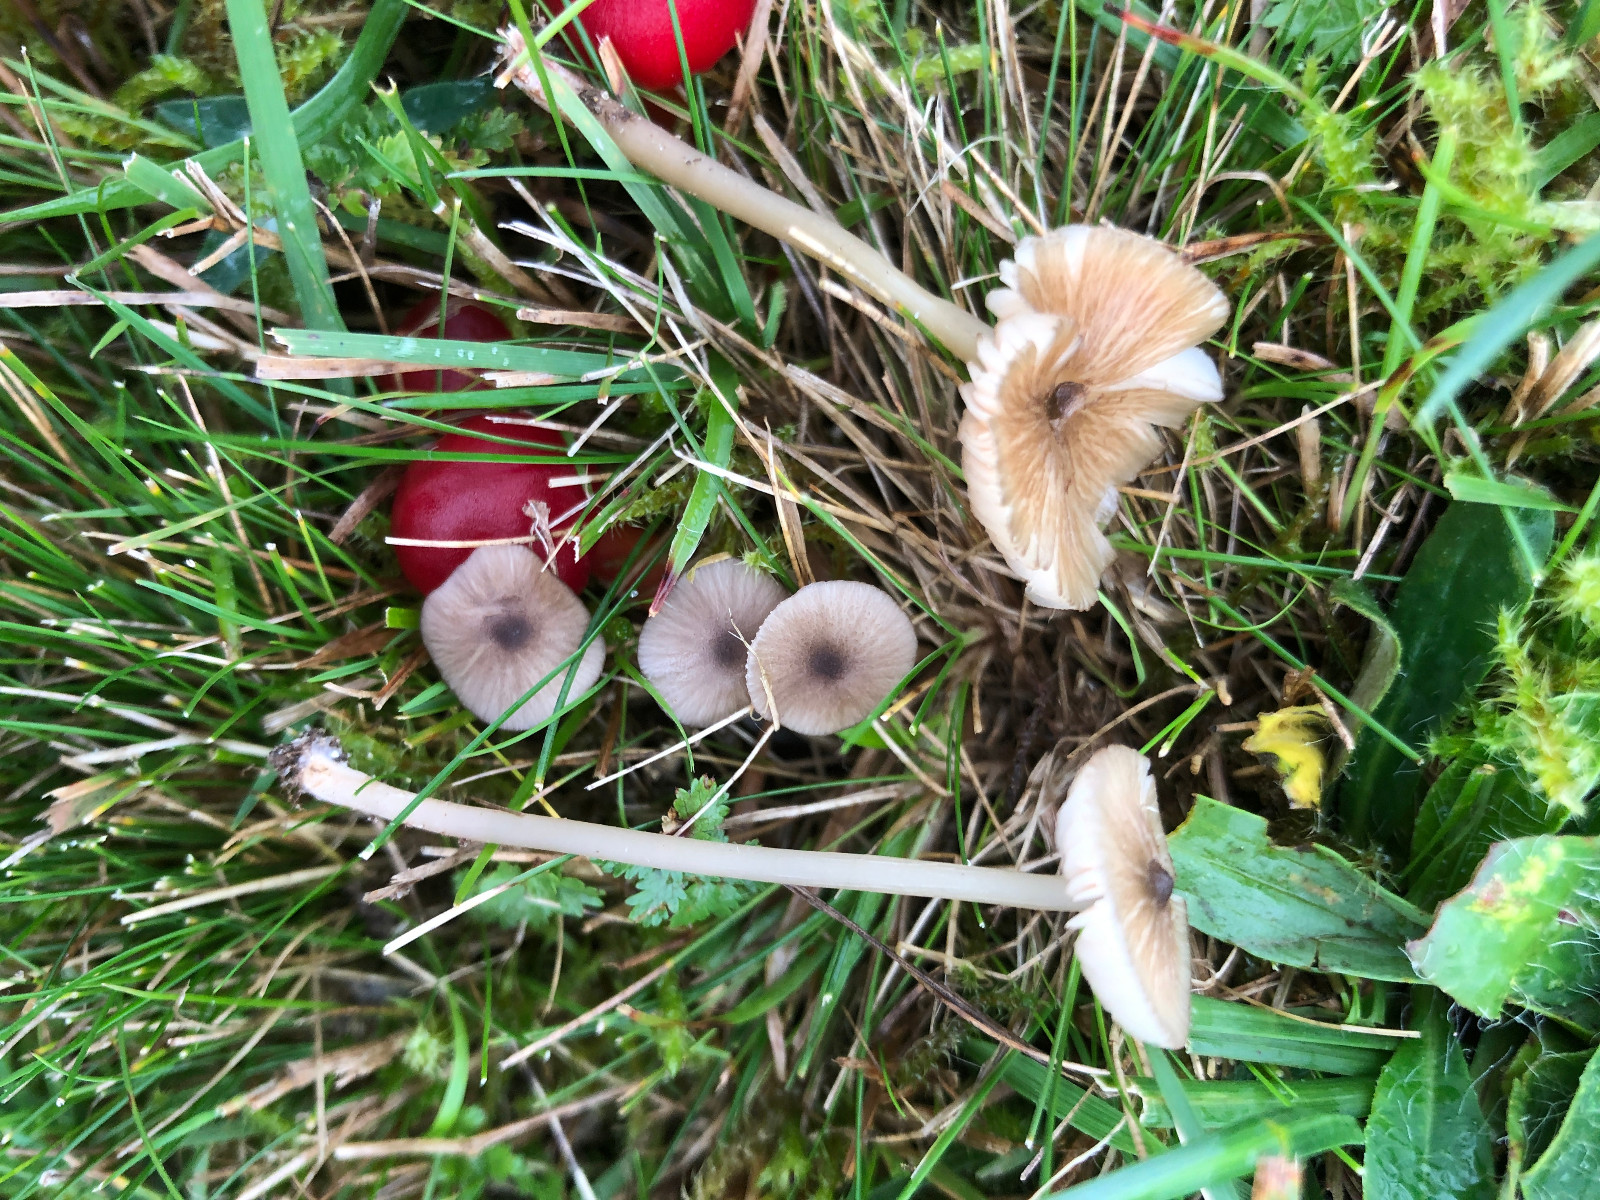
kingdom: Fungi
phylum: Basidiomycota
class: Agaricomycetes
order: Agaricales
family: Entolomataceae
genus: Entoloma
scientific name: Entoloma exile
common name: rødplettet rødblad
